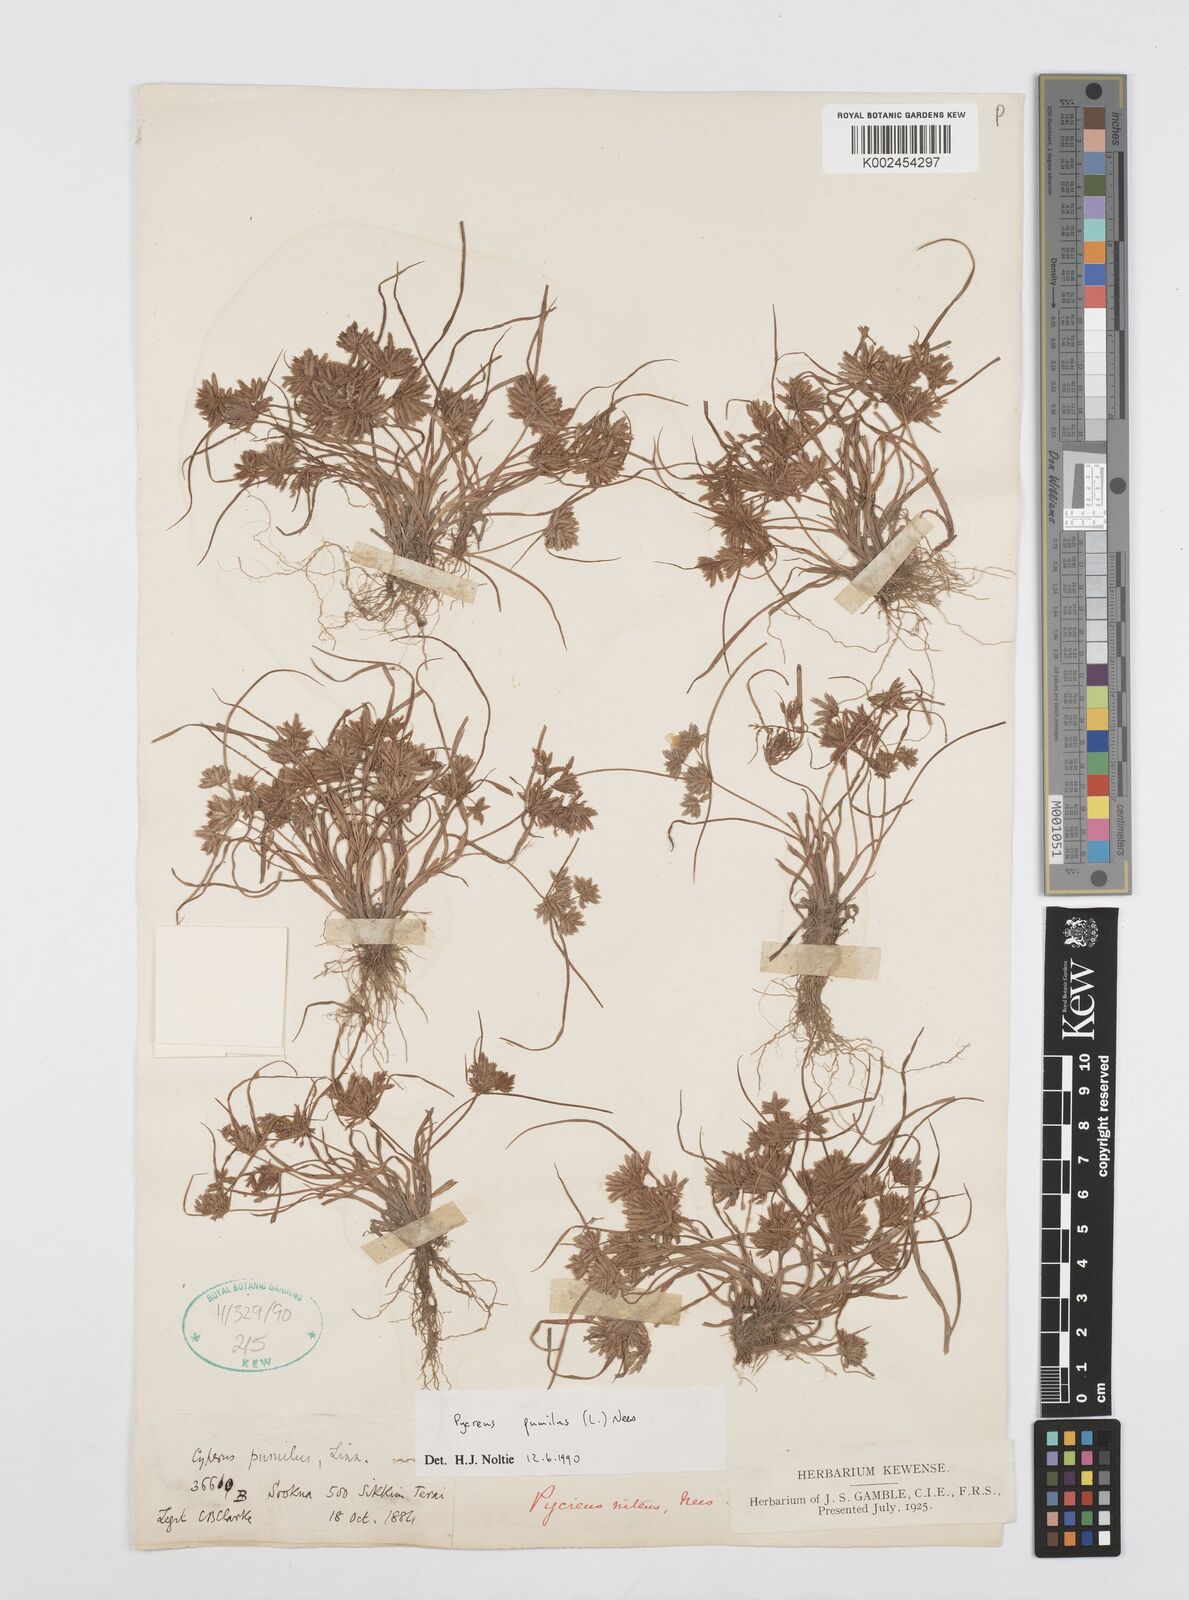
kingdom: Plantae
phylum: Tracheophyta
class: Liliopsida
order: Poales
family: Cyperaceae
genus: Cyperus
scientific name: Cyperus pumilus
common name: Low flatsedge
